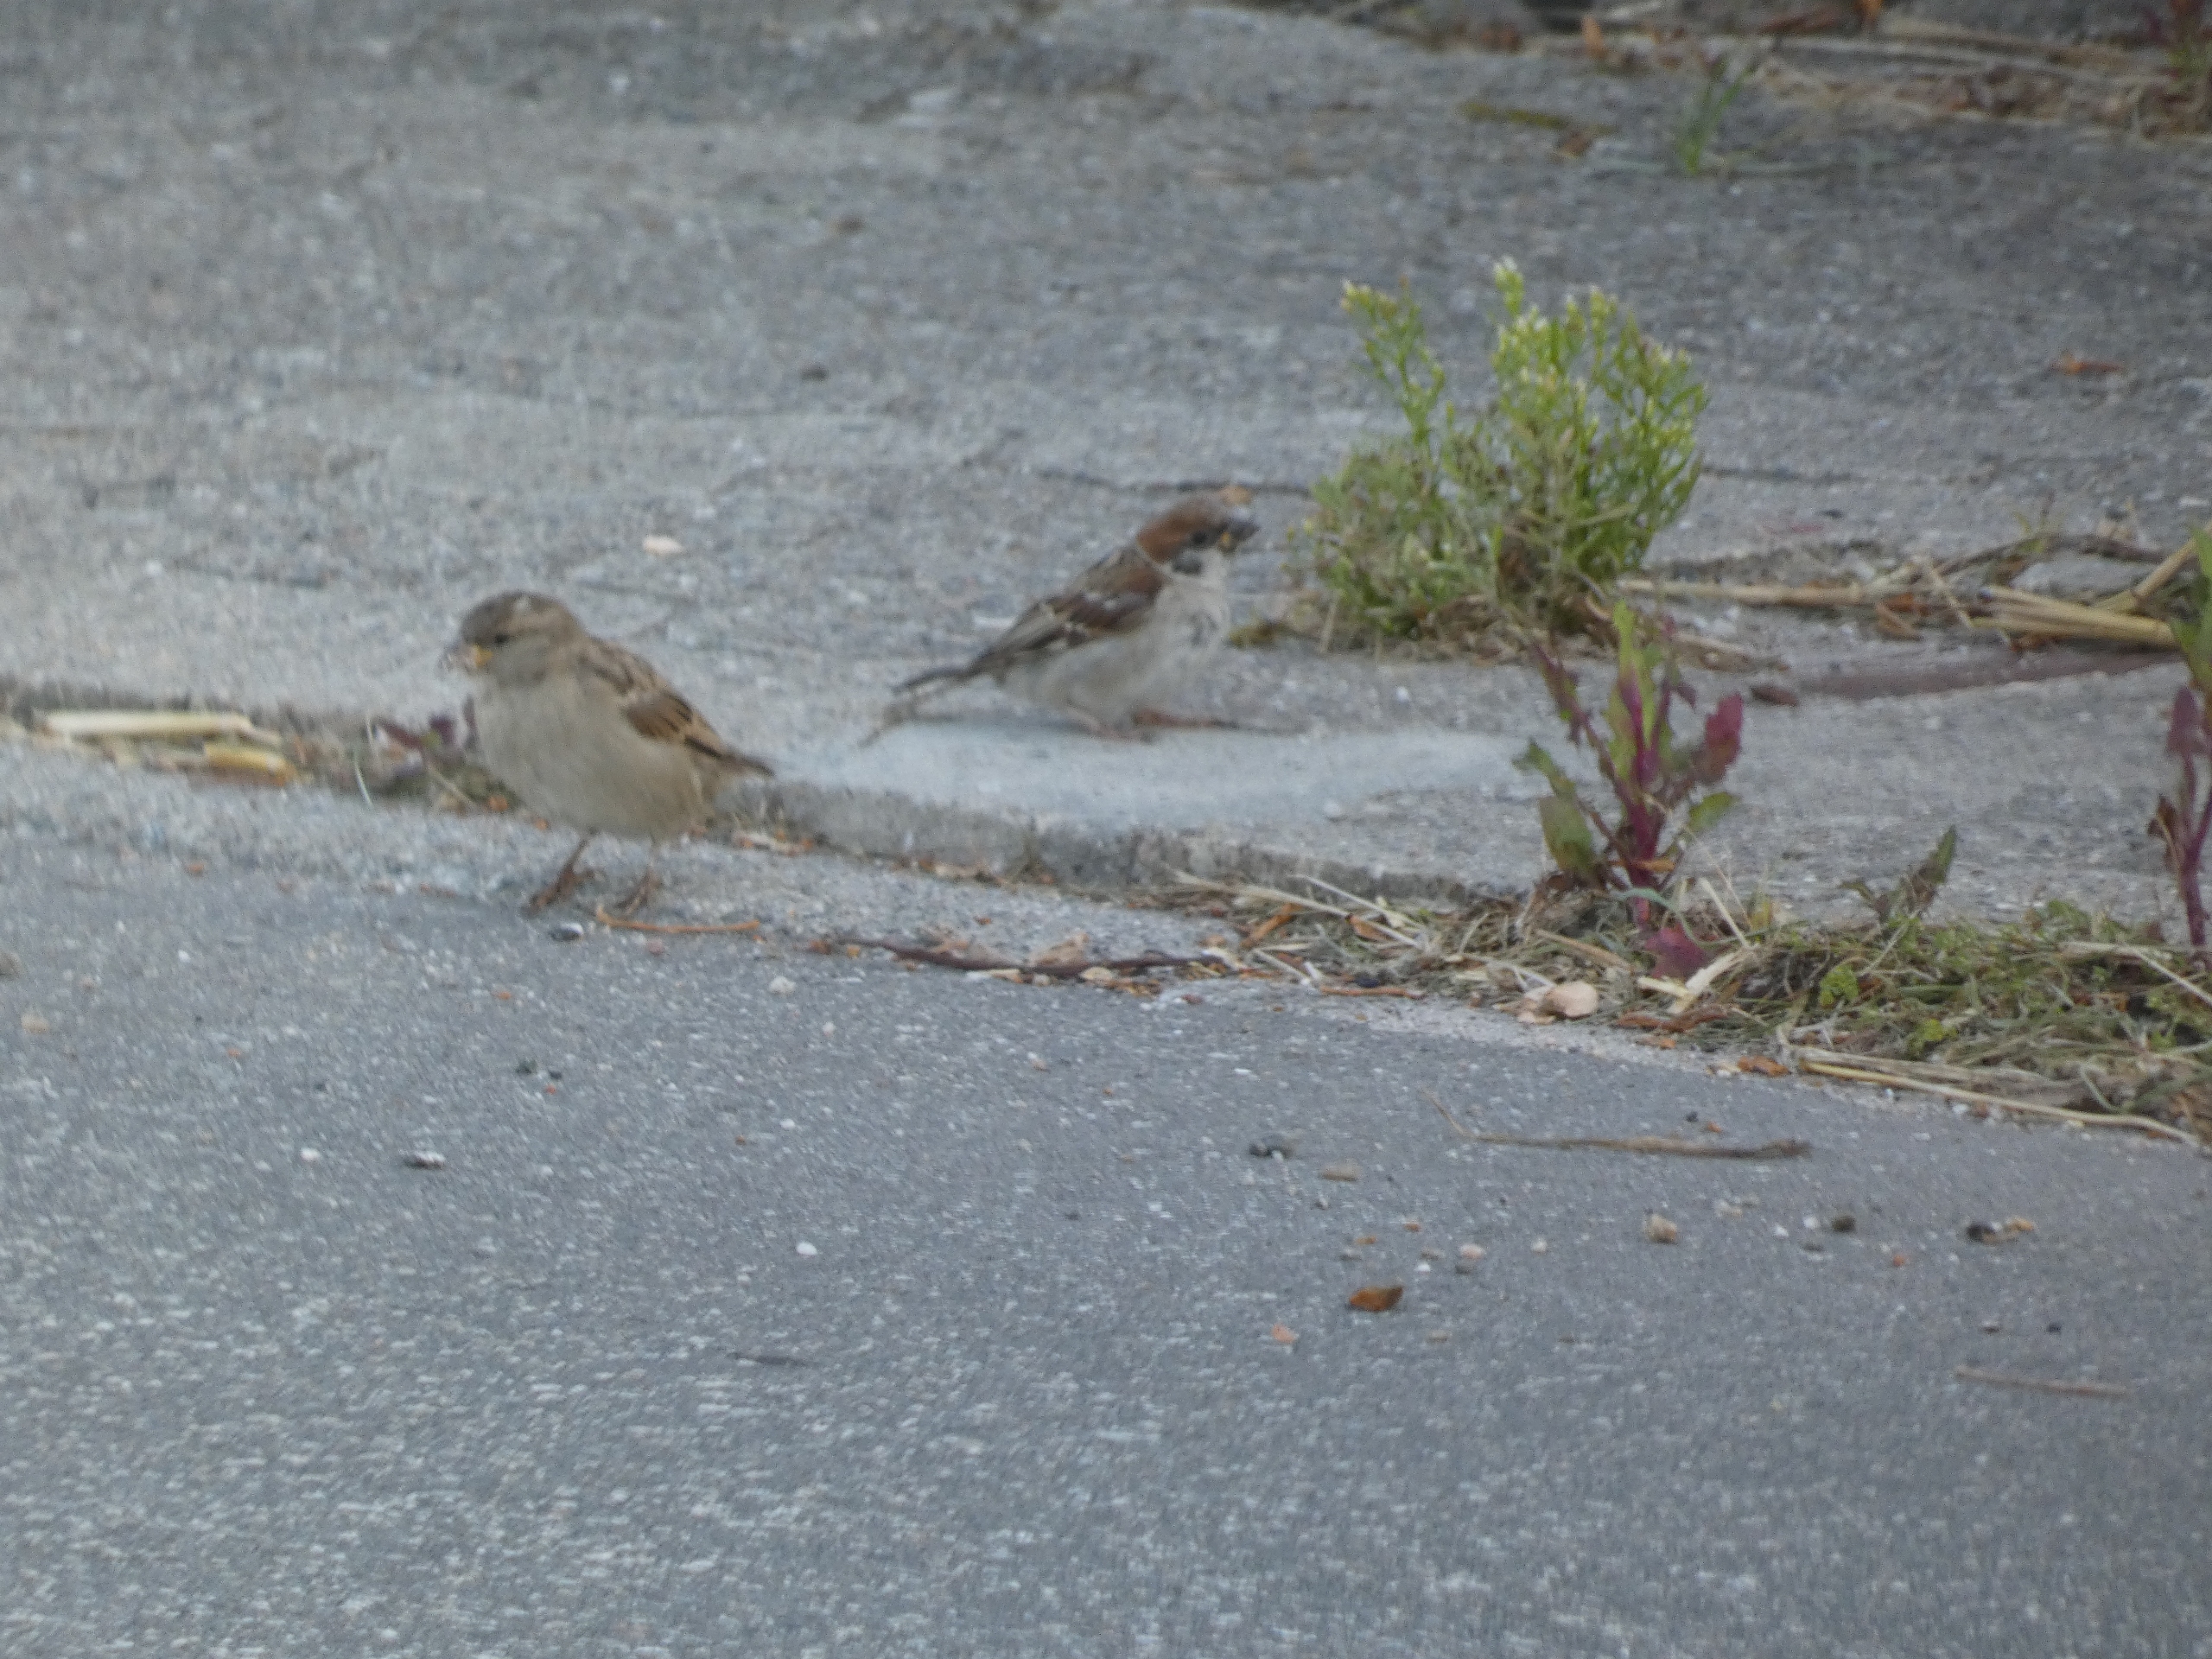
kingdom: Animalia
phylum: Chordata
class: Aves
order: Passeriformes
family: Passeridae
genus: Passer
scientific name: Passer domesticus
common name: Gråspurv
